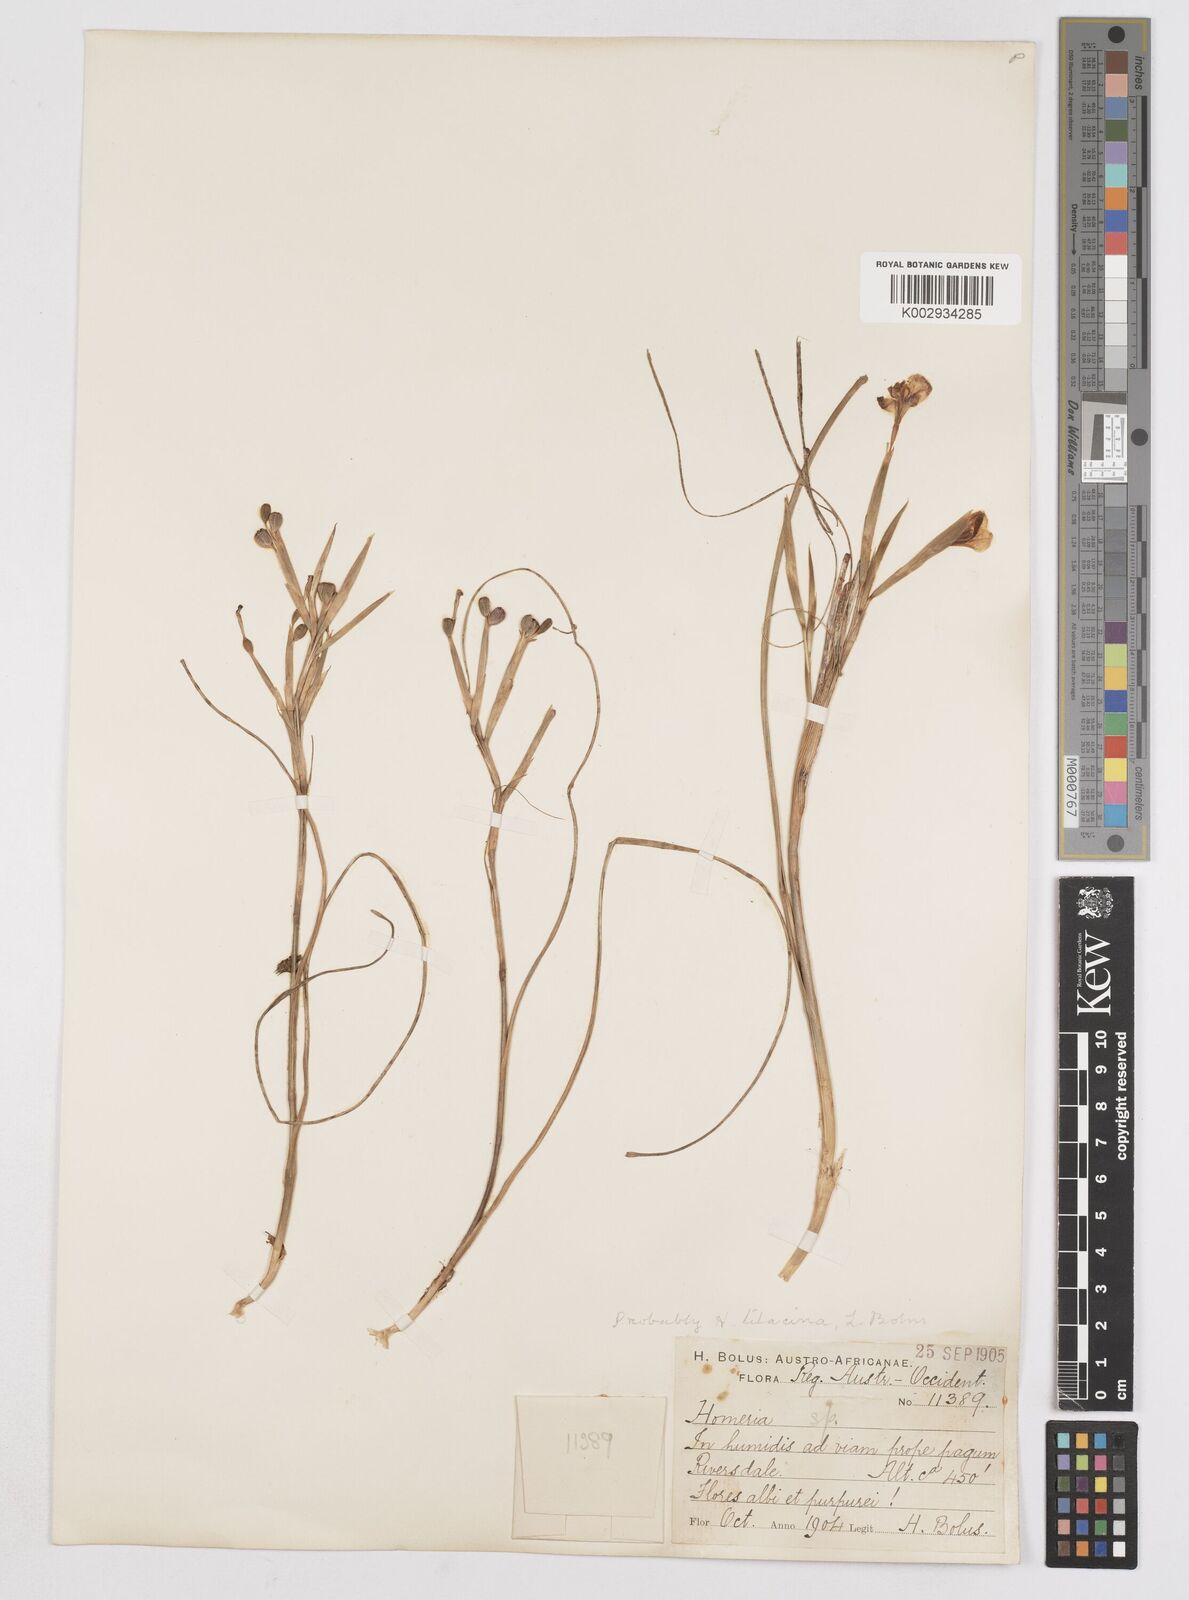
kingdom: Plantae
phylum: Tracheophyta
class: Liliopsida
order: Asparagales
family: Iridaceae
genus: Moraea
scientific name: Moraea
